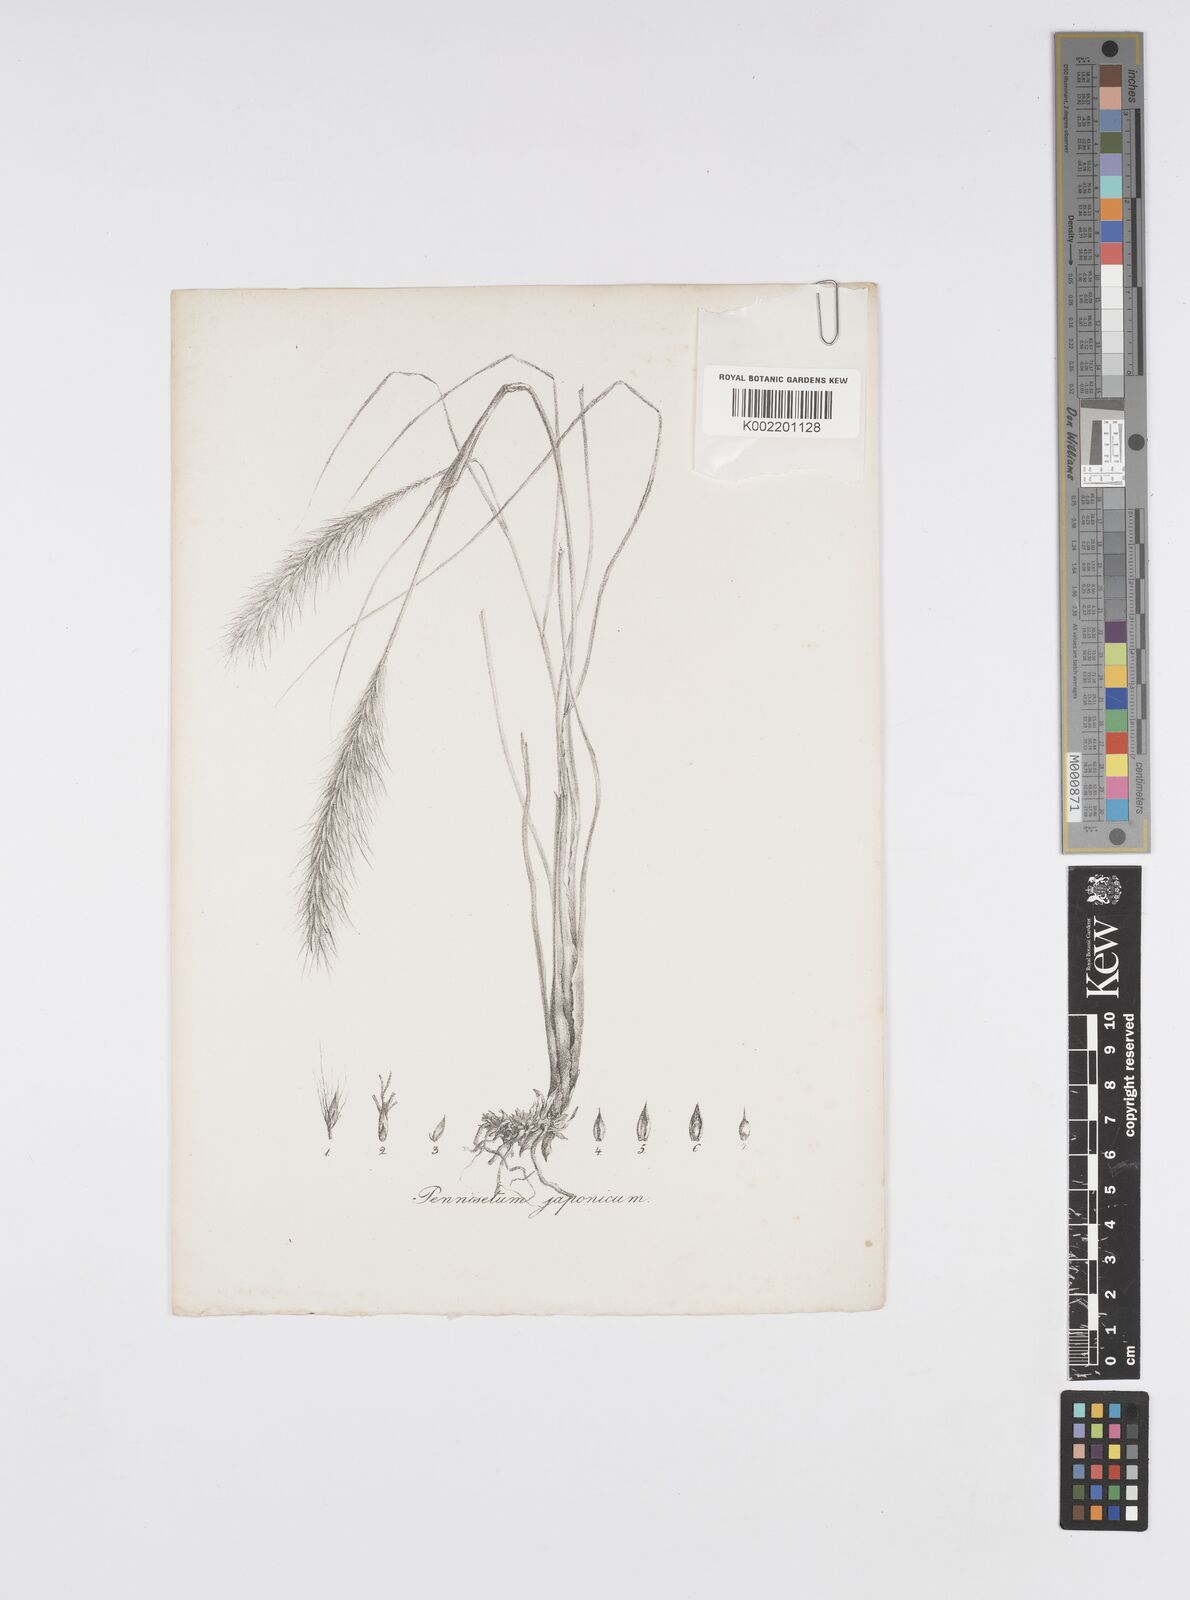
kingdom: Plantae
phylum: Tracheophyta
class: Liliopsida
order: Poales
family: Poaceae
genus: Cenchrus
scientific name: Cenchrus alopecuroides
